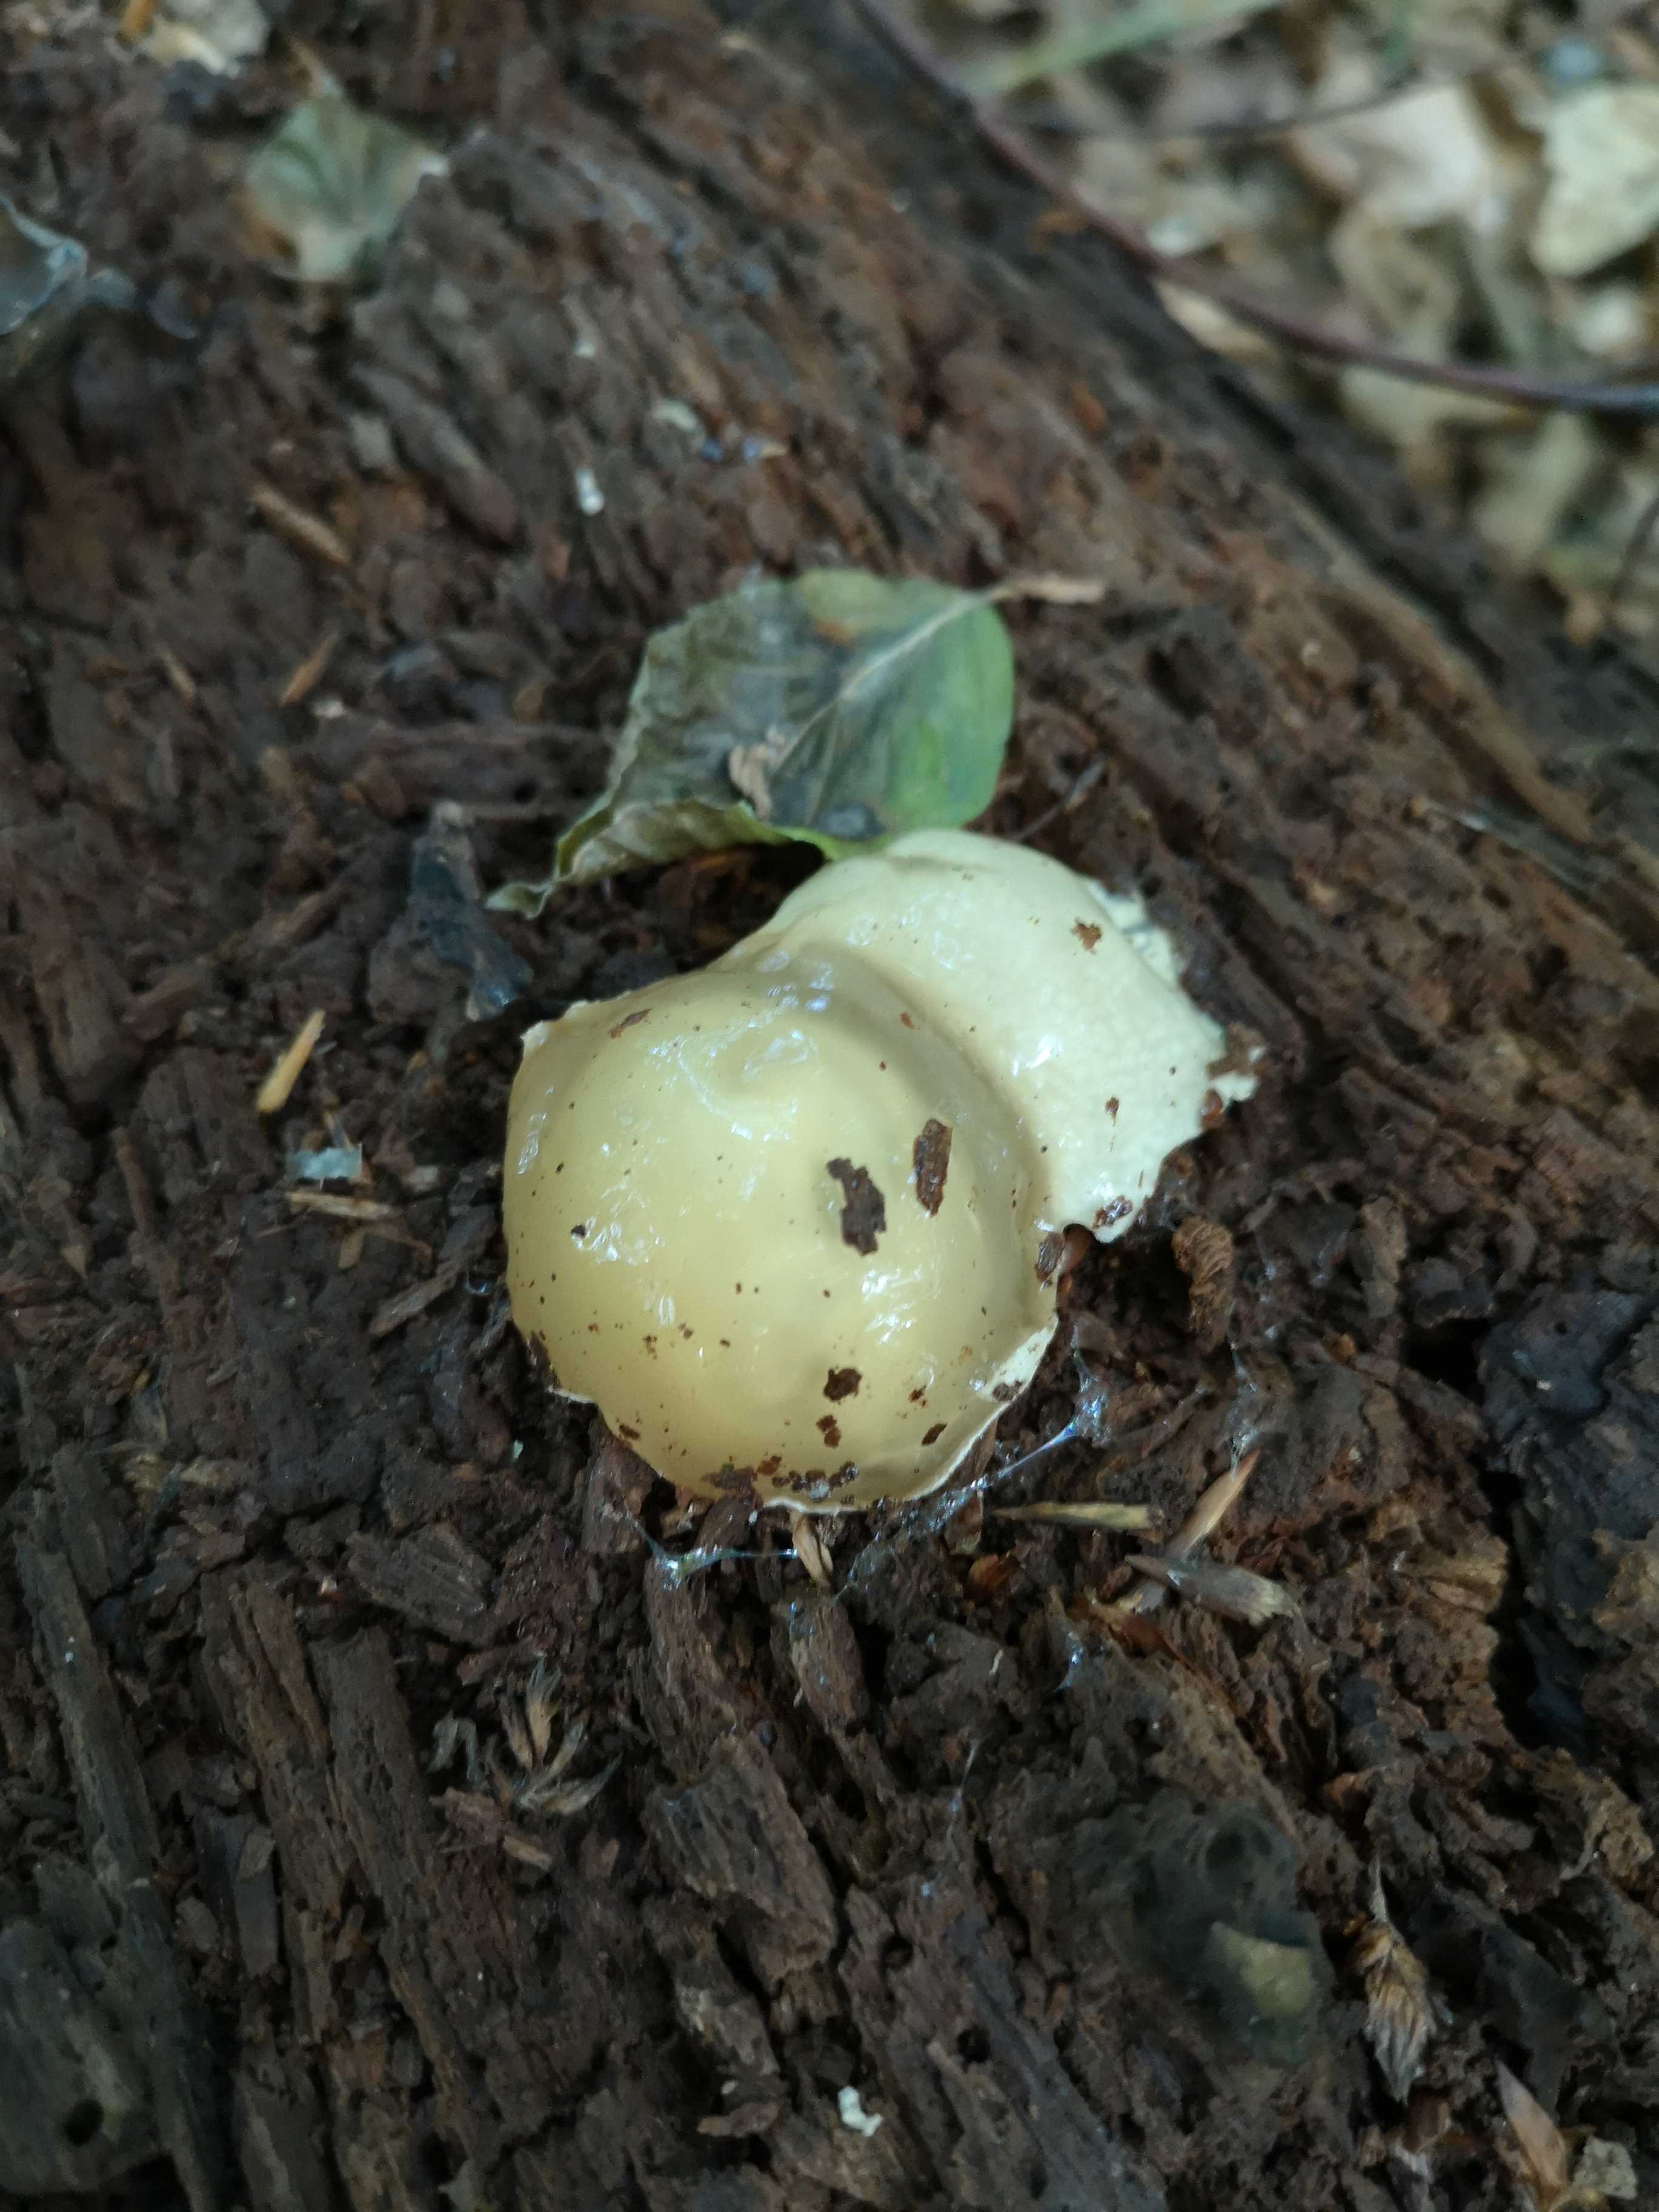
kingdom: Fungi
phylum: Basidiomycota
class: Agaricomycetes
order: Phallales
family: Phallaceae
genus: Phallus
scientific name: Phallus impudicus
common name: almindelig stinksvamp
